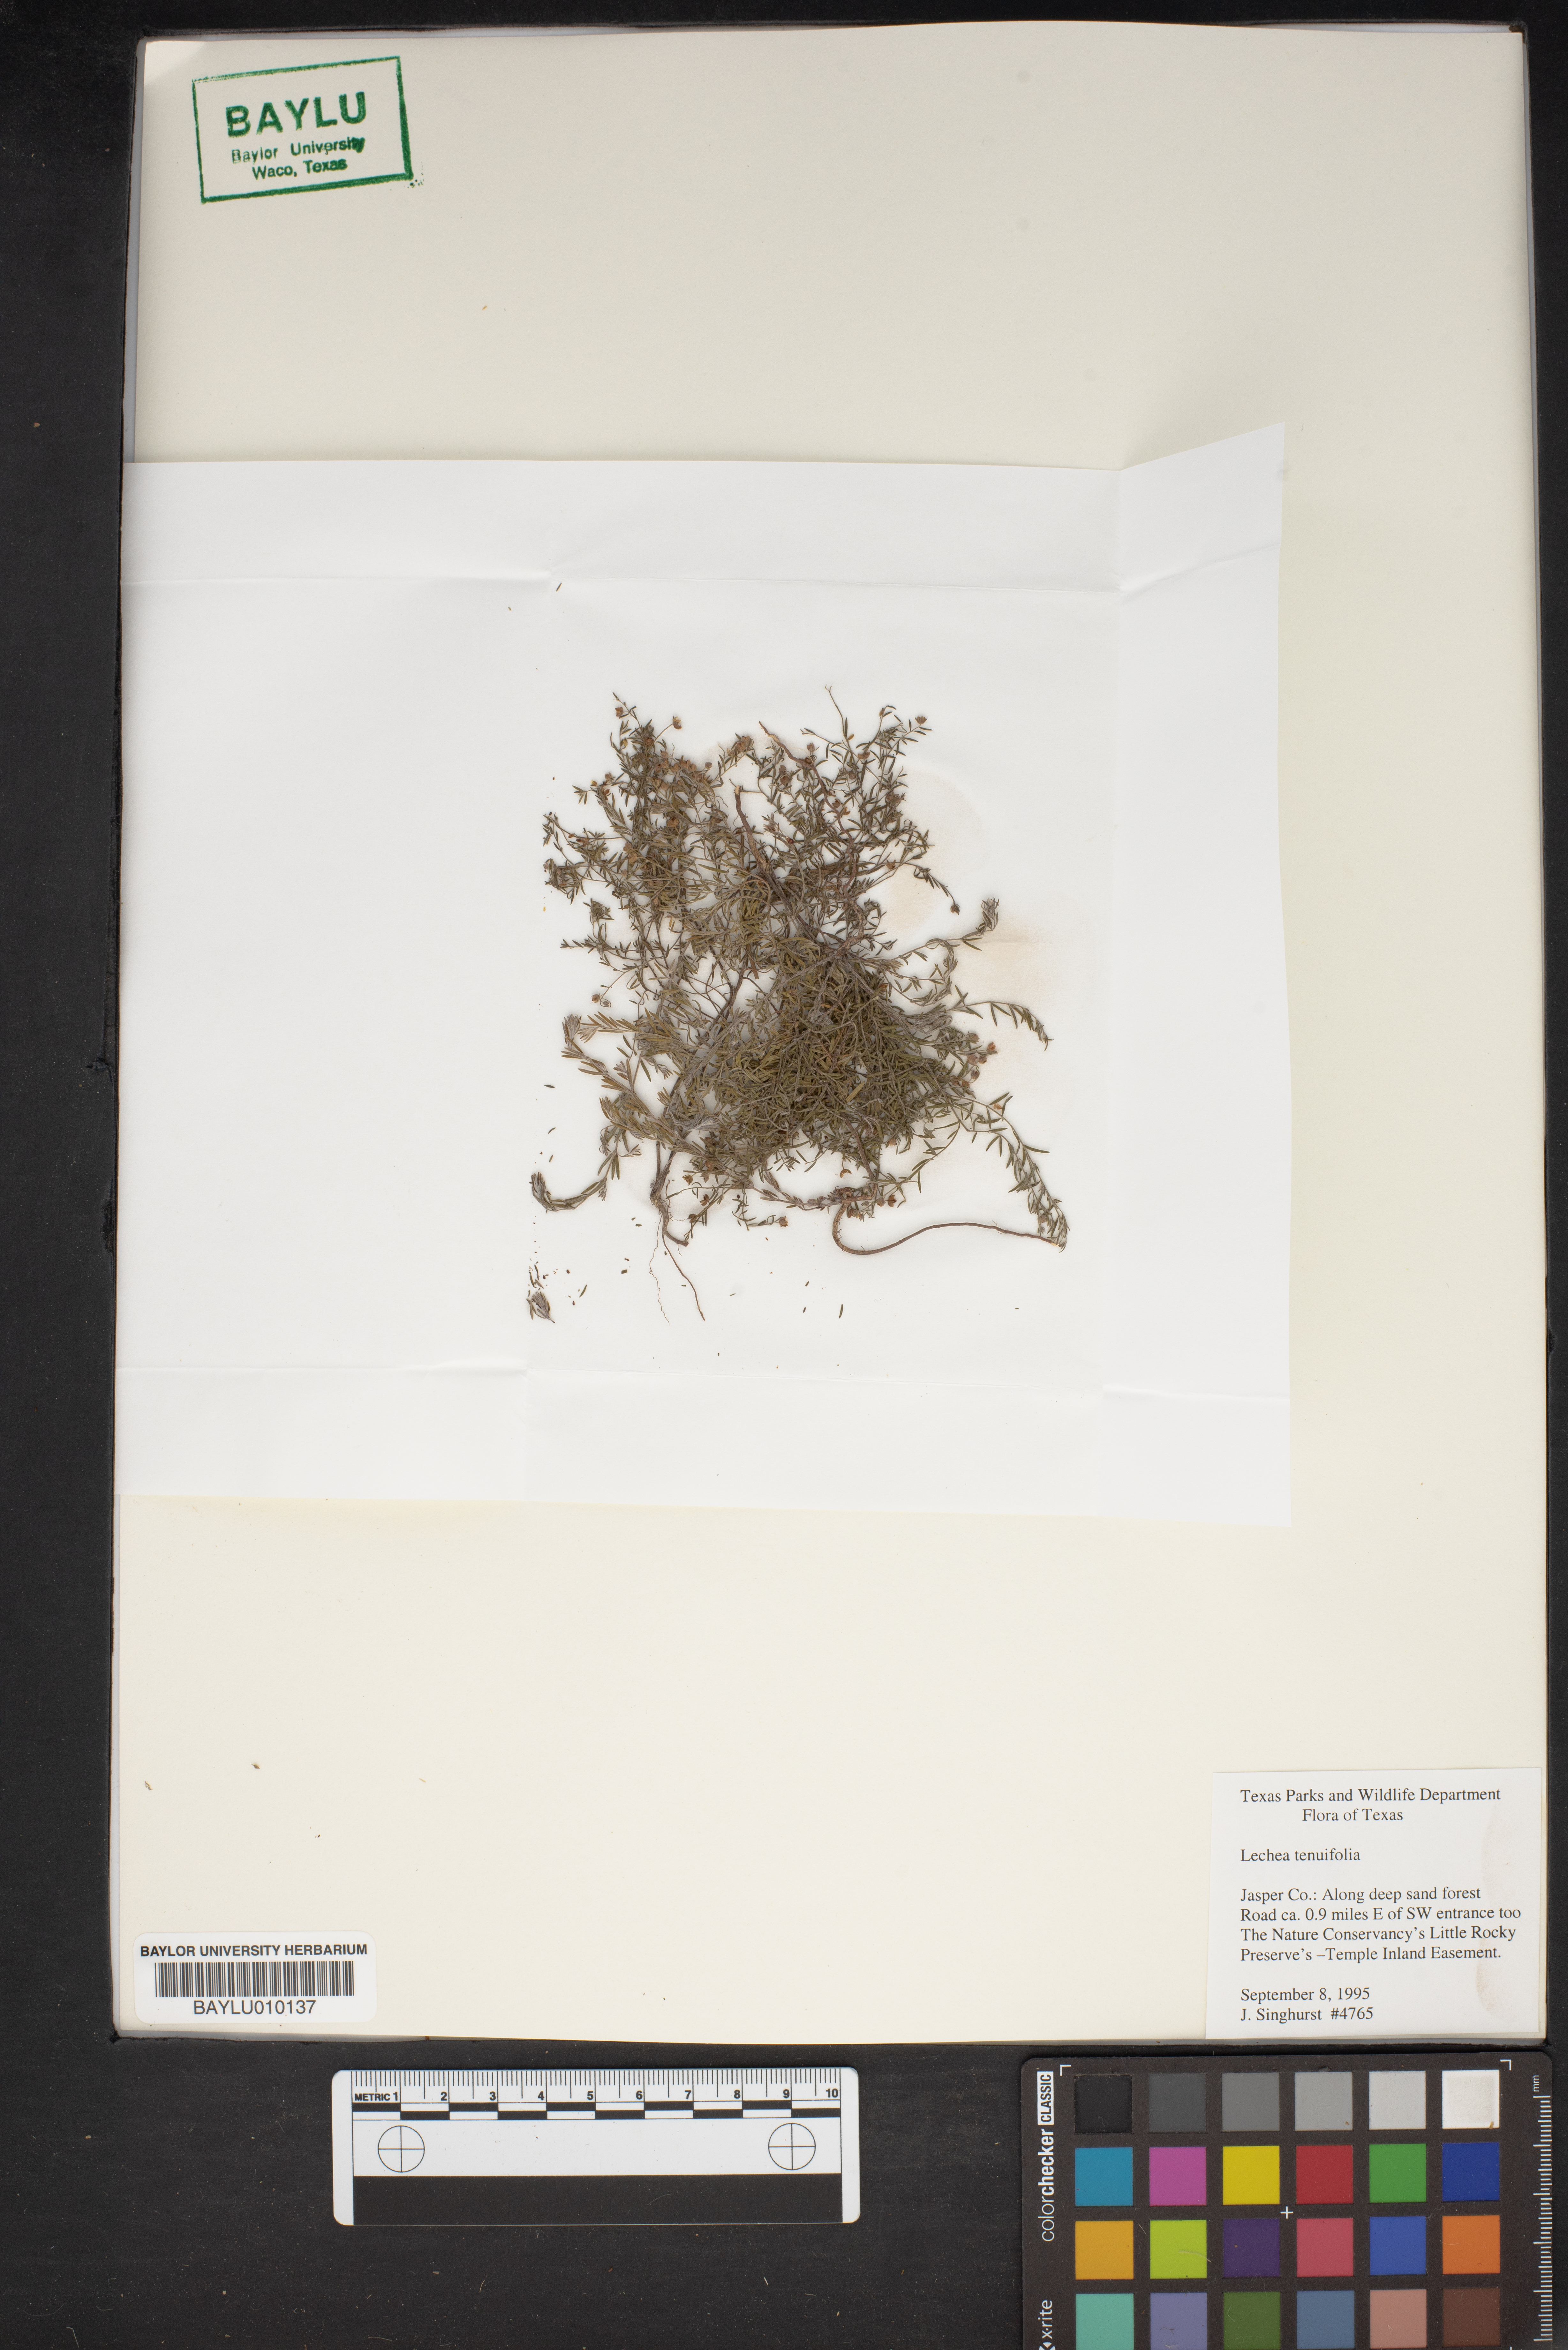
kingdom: Plantae
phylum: Tracheophyta
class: Magnoliopsida
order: Malvales
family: Cistaceae
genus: Lechea
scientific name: Lechea tenuifolia
